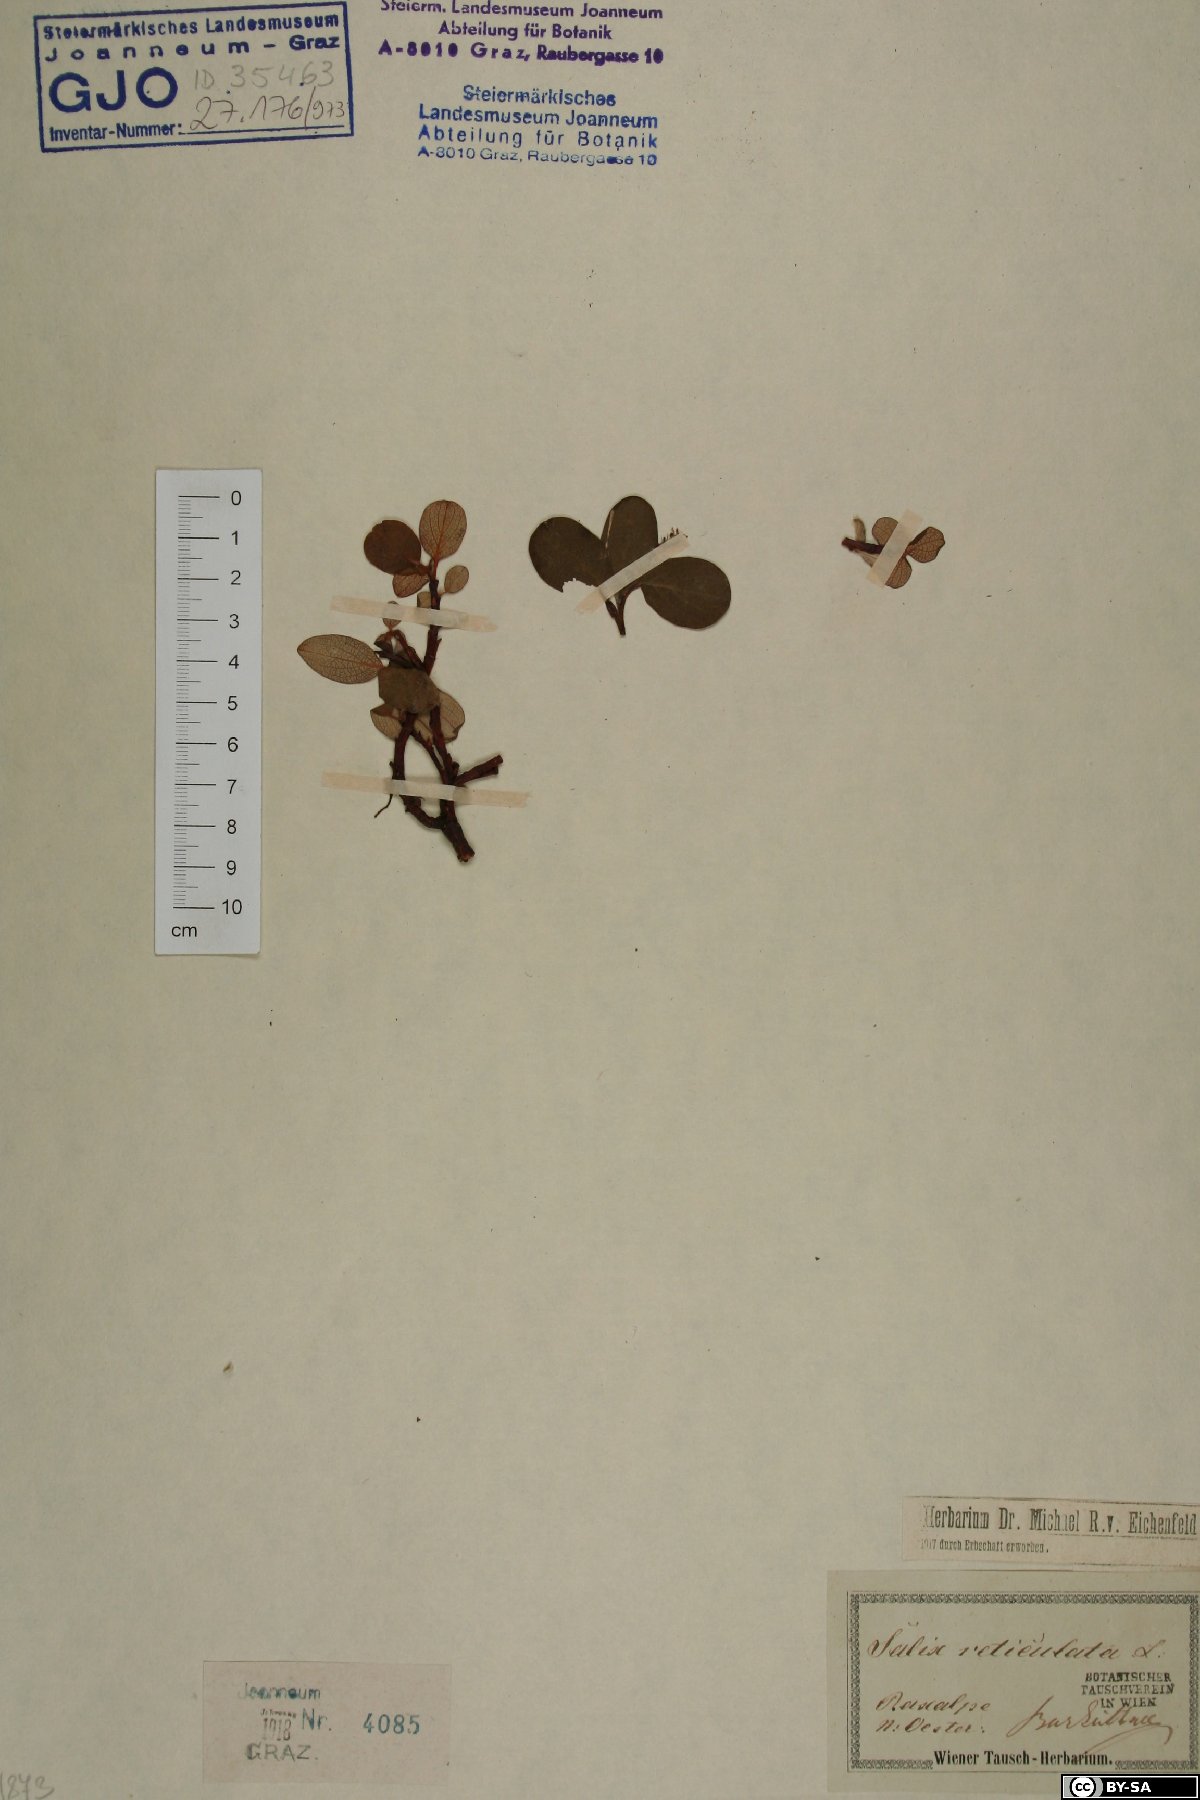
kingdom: Plantae
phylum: Tracheophyta
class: Magnoliopsida
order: Malpighiales
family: Salicaceae
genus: Salix
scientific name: Salix reticulata
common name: Net-leaved willow
